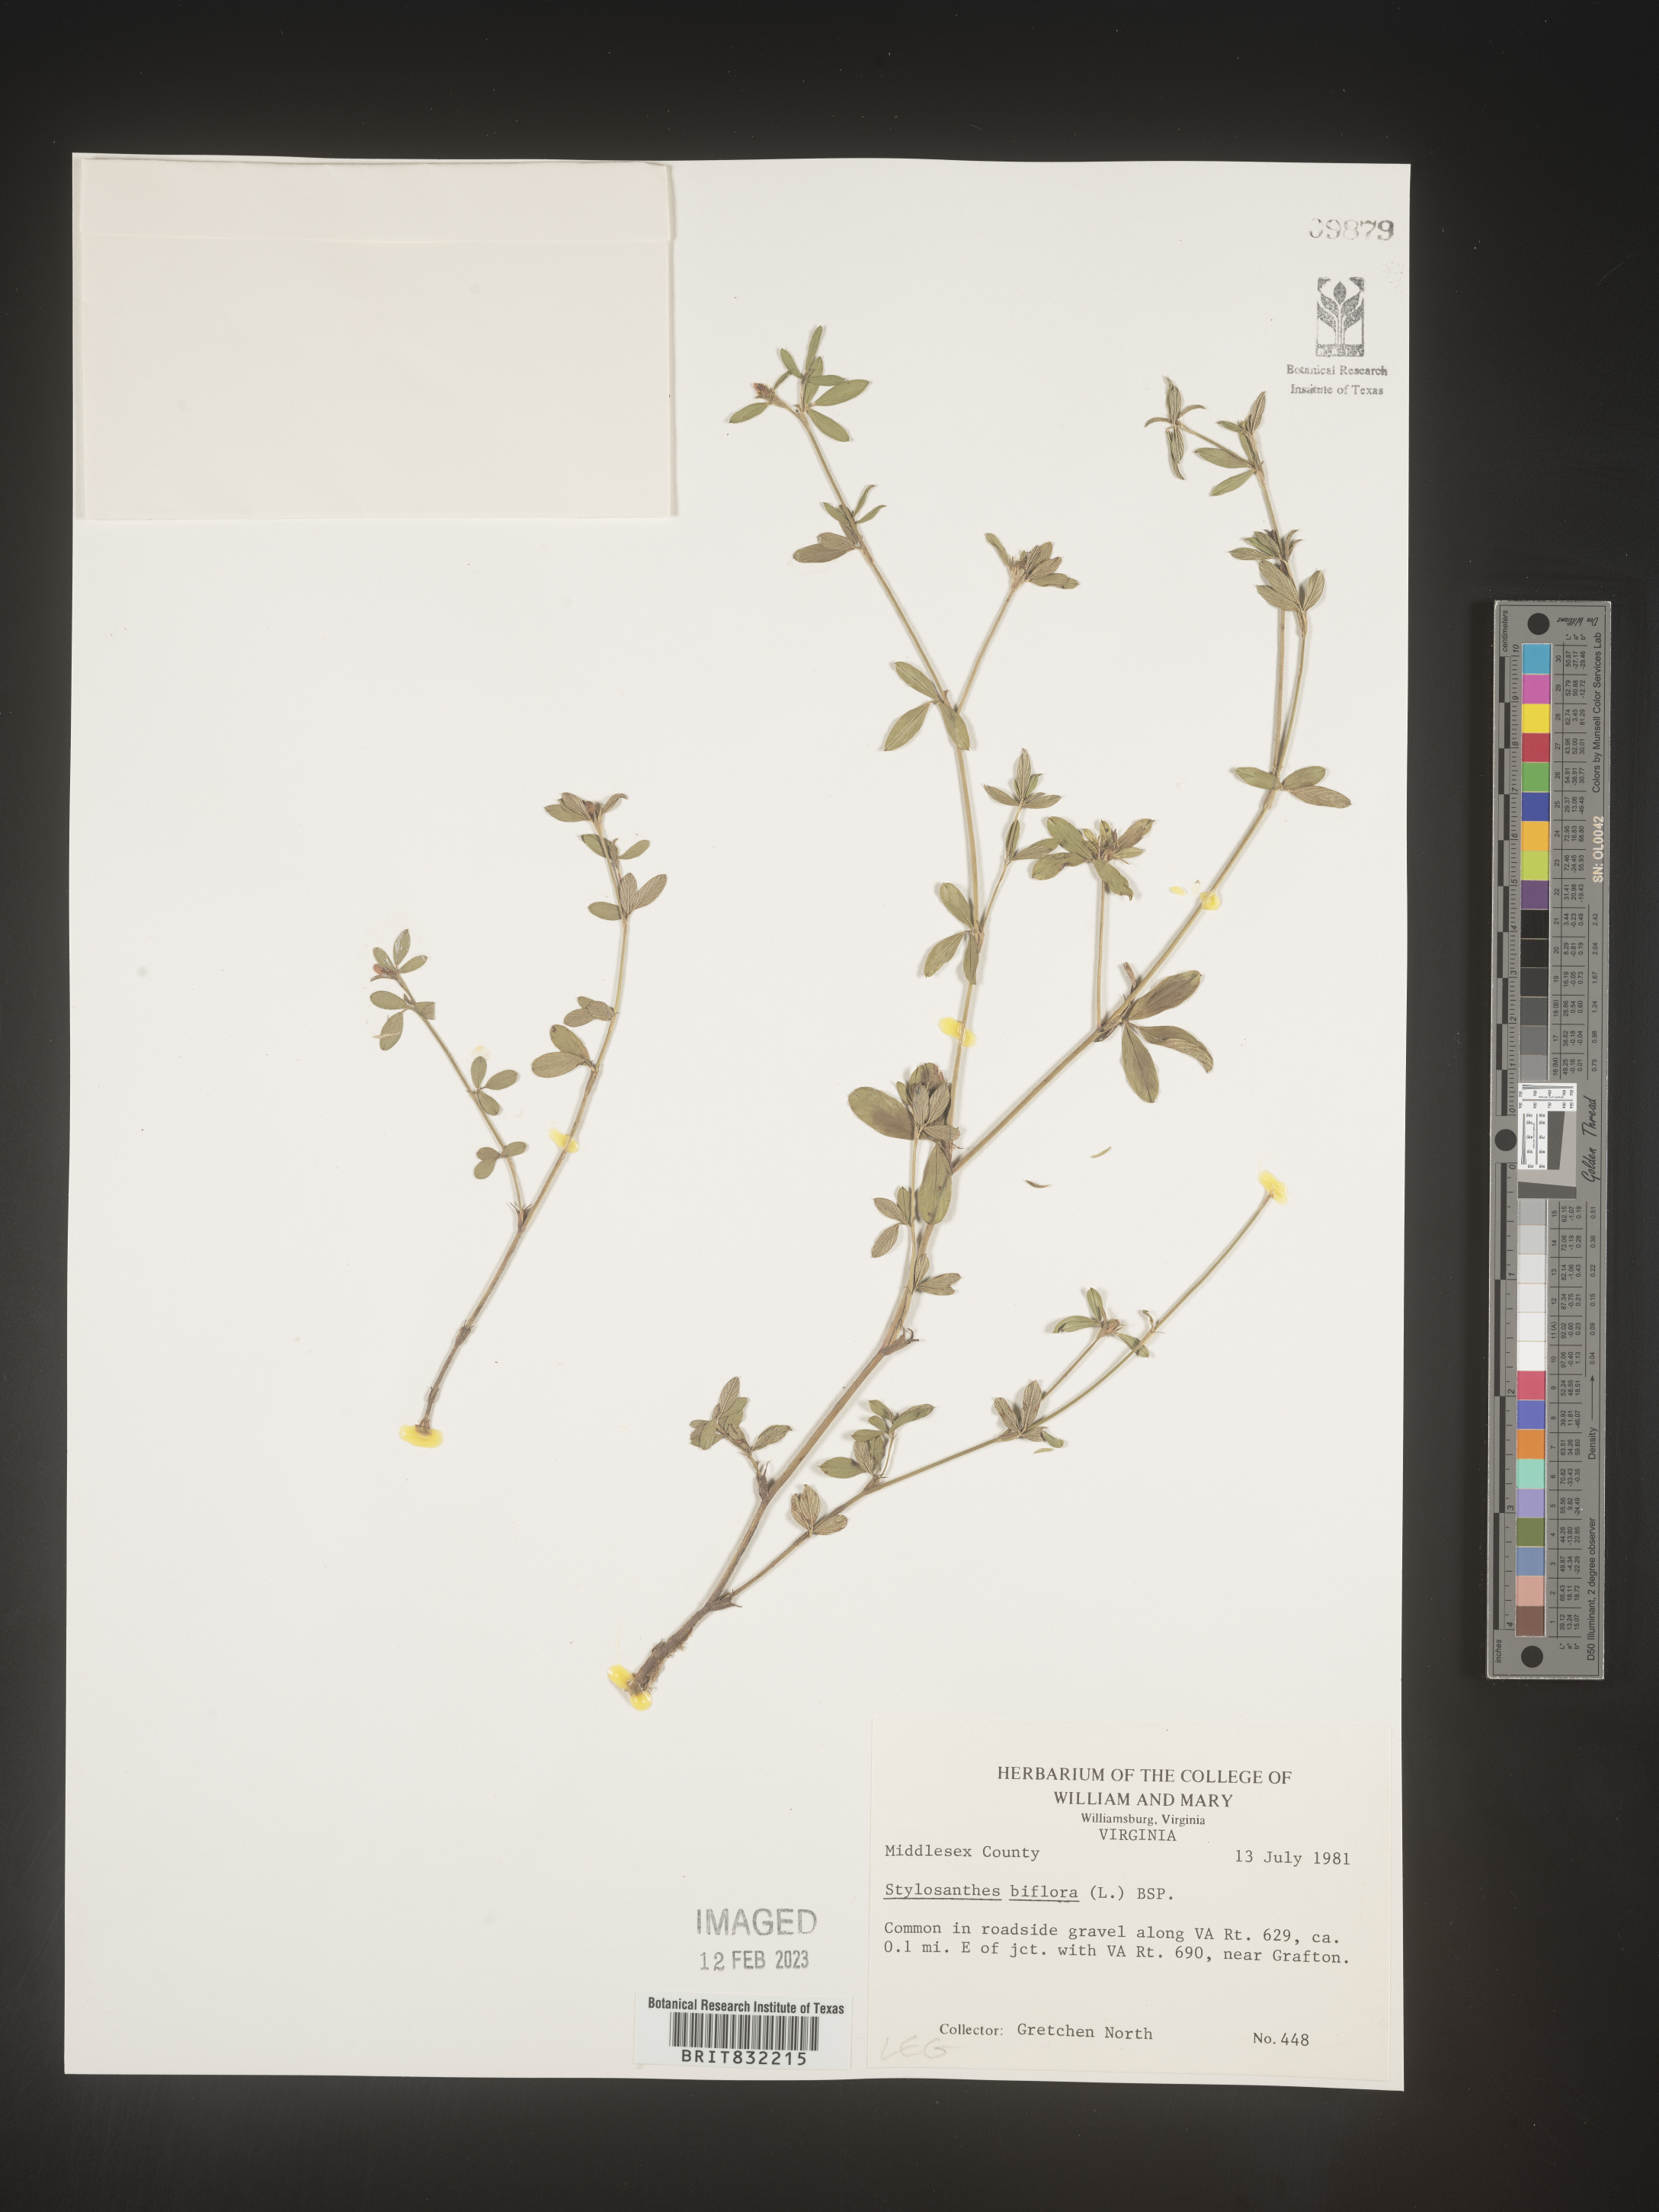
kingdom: Plantae
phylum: Tracheophyta
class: Magnoliopsida
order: Fabales
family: Fabaceae
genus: Stylosanthes
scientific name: Stylosanthes biflora
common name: Two-flower pencil-flower
